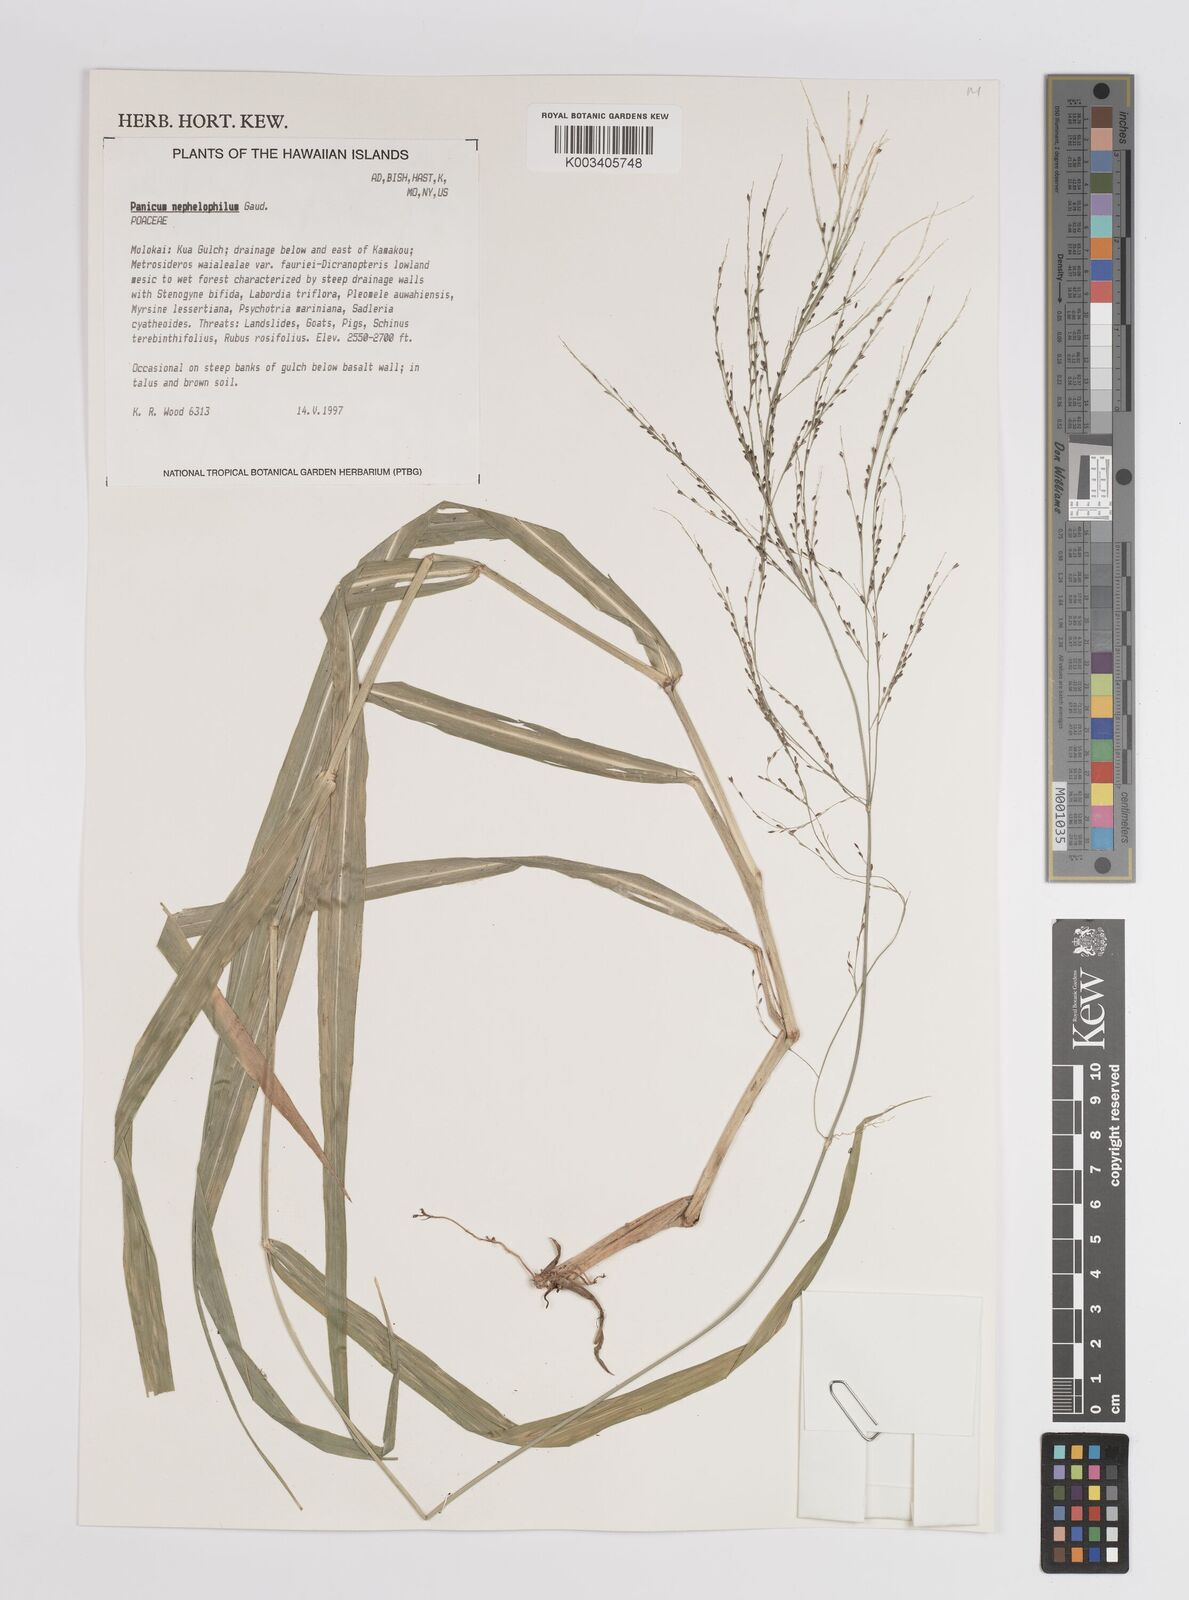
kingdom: Plantae
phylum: Tracheophyta
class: Liliopsida
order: Poales
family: Poaceae
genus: Panicum
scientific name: Panicum nephelophilum
